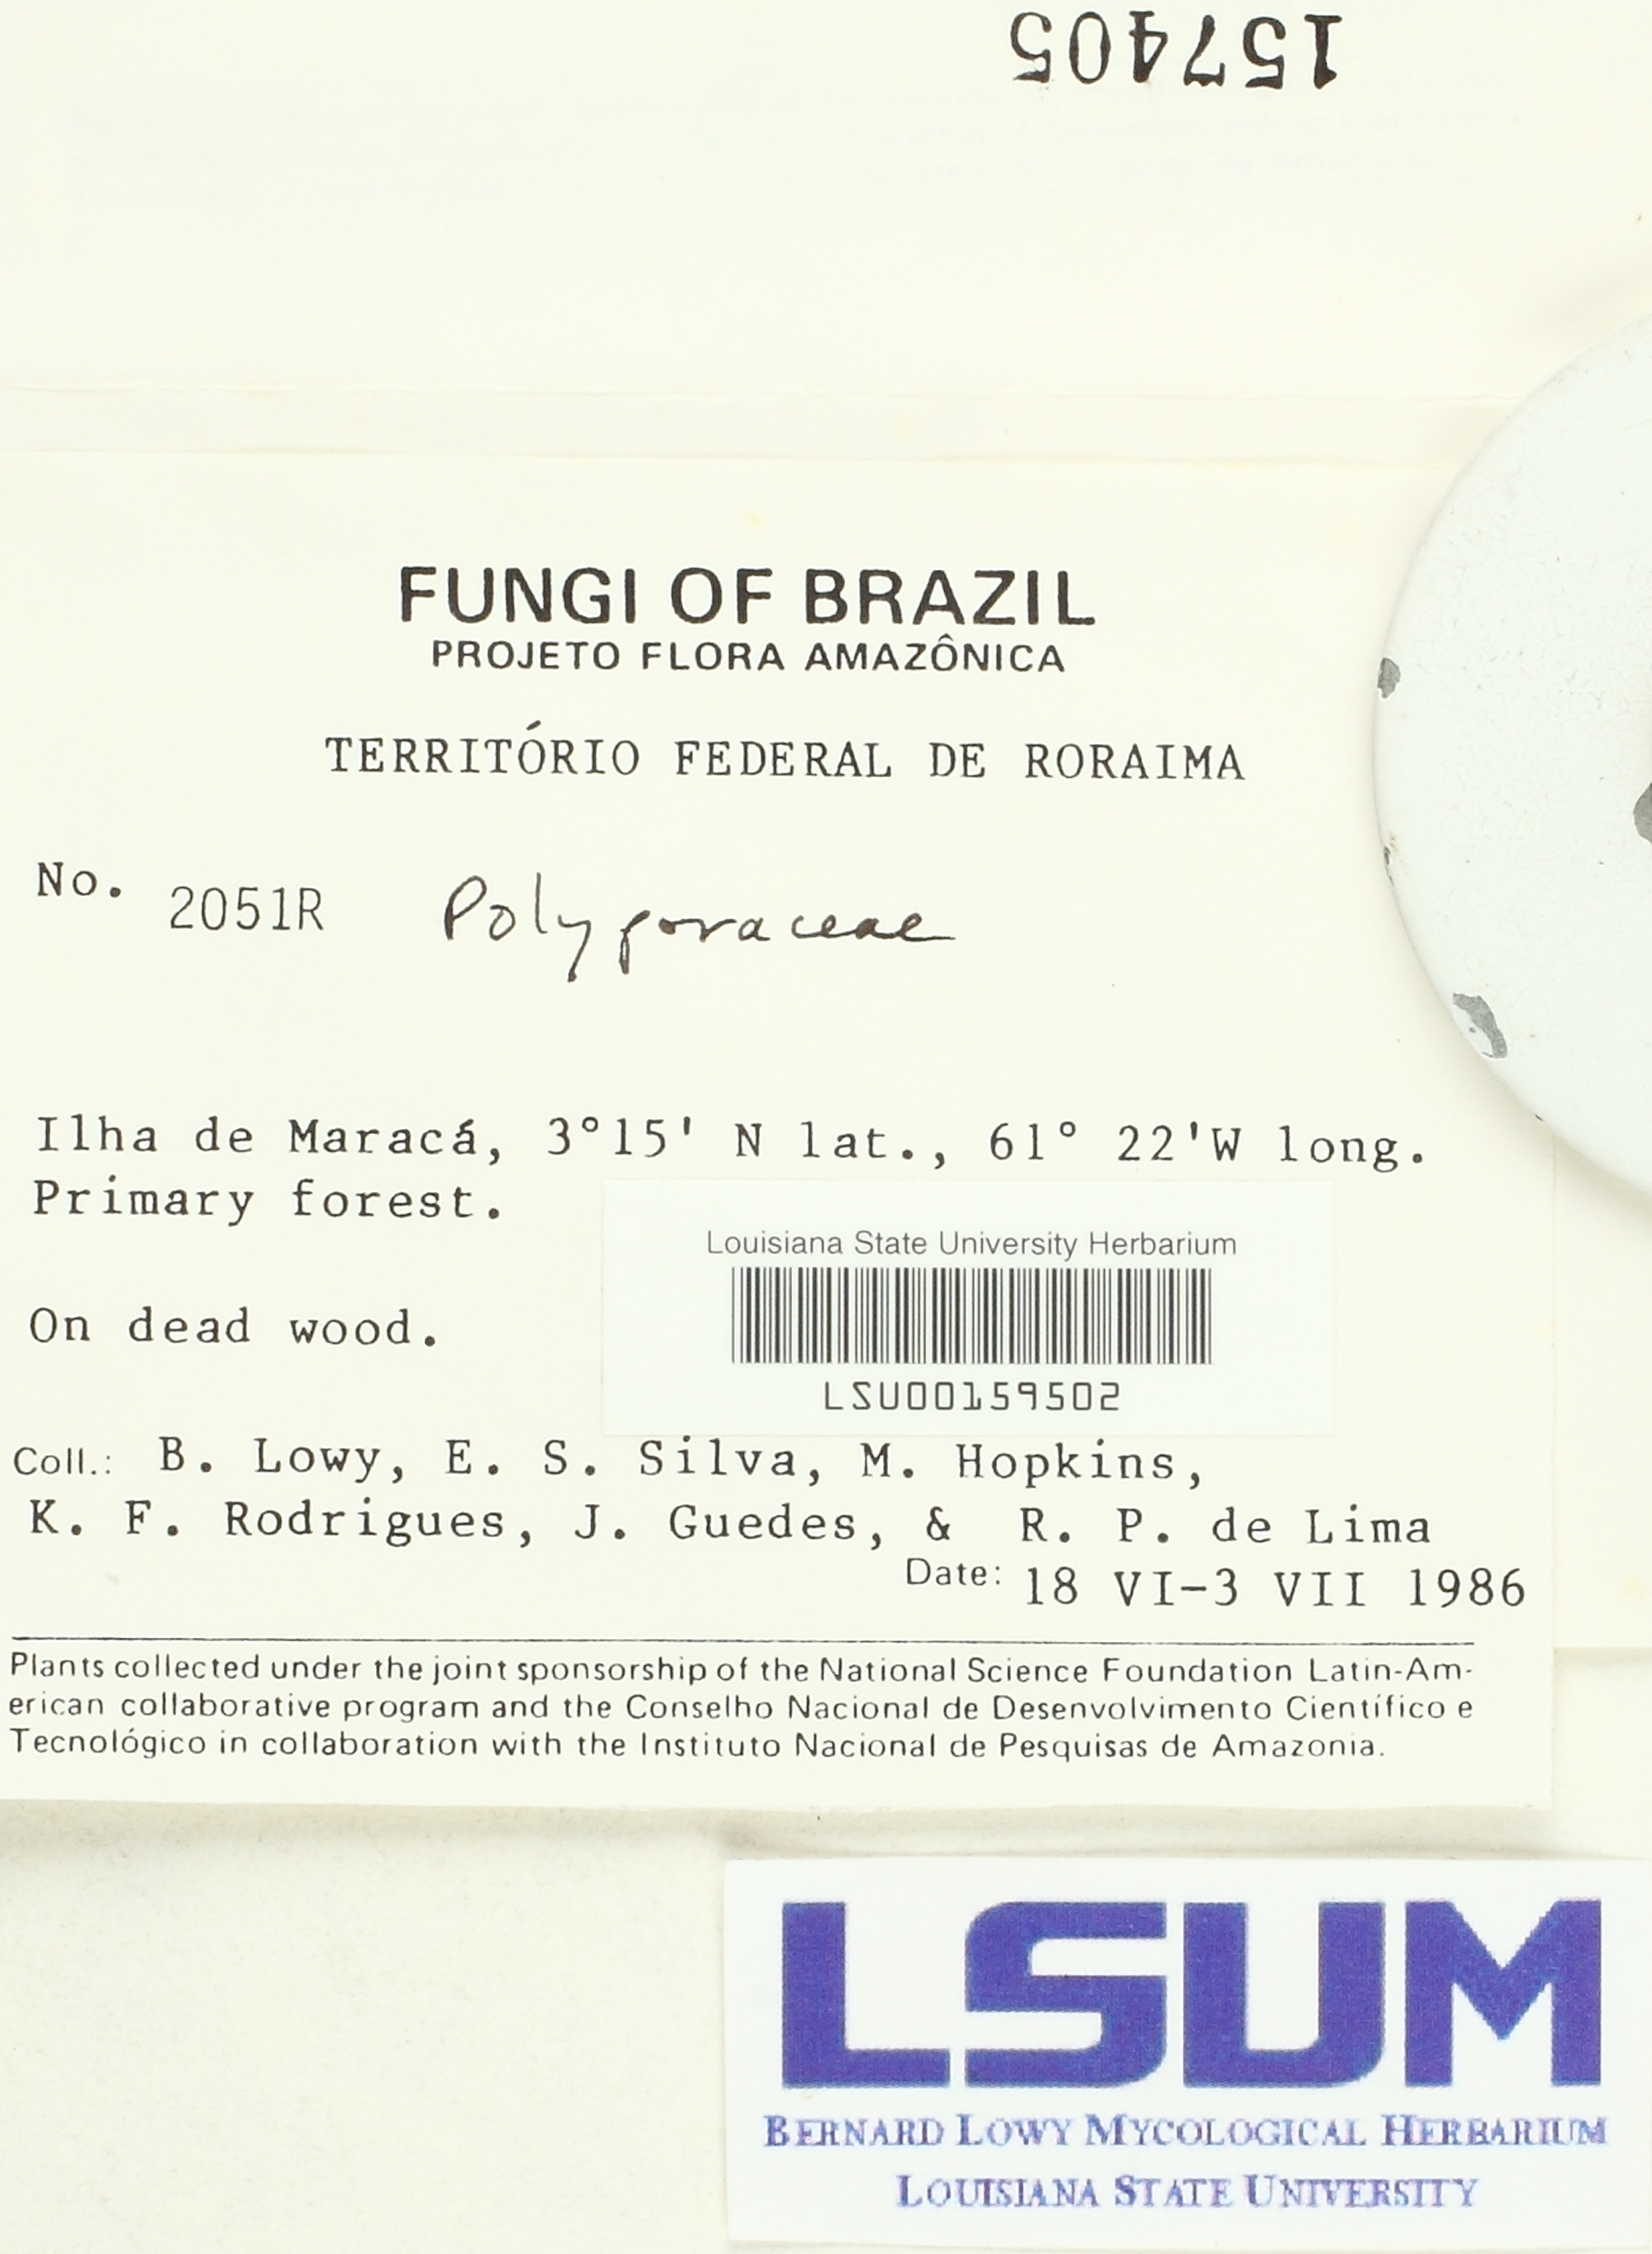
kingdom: Fungi
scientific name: Fungi
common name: Fungi
